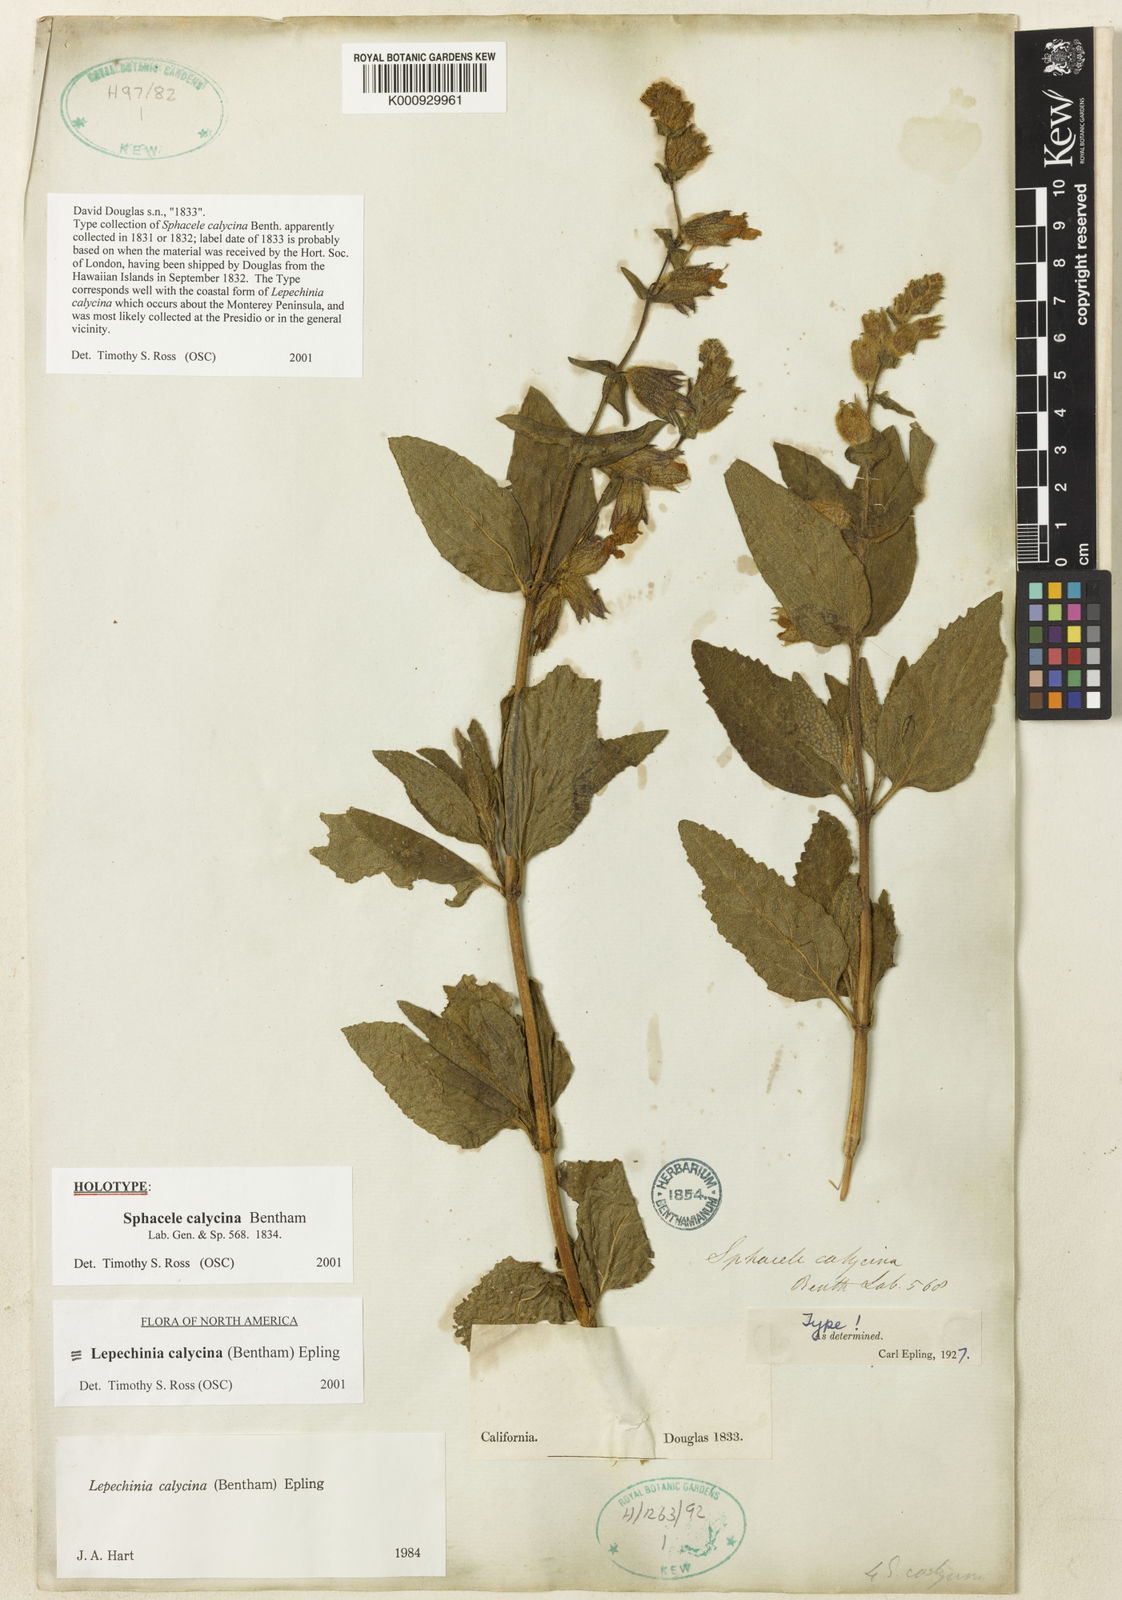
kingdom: Plantae
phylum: Tracheophyta
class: Magnoliopsida
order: Lamiales
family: Lamiaceae
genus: Lepechinia
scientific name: Lepechinia calycina
